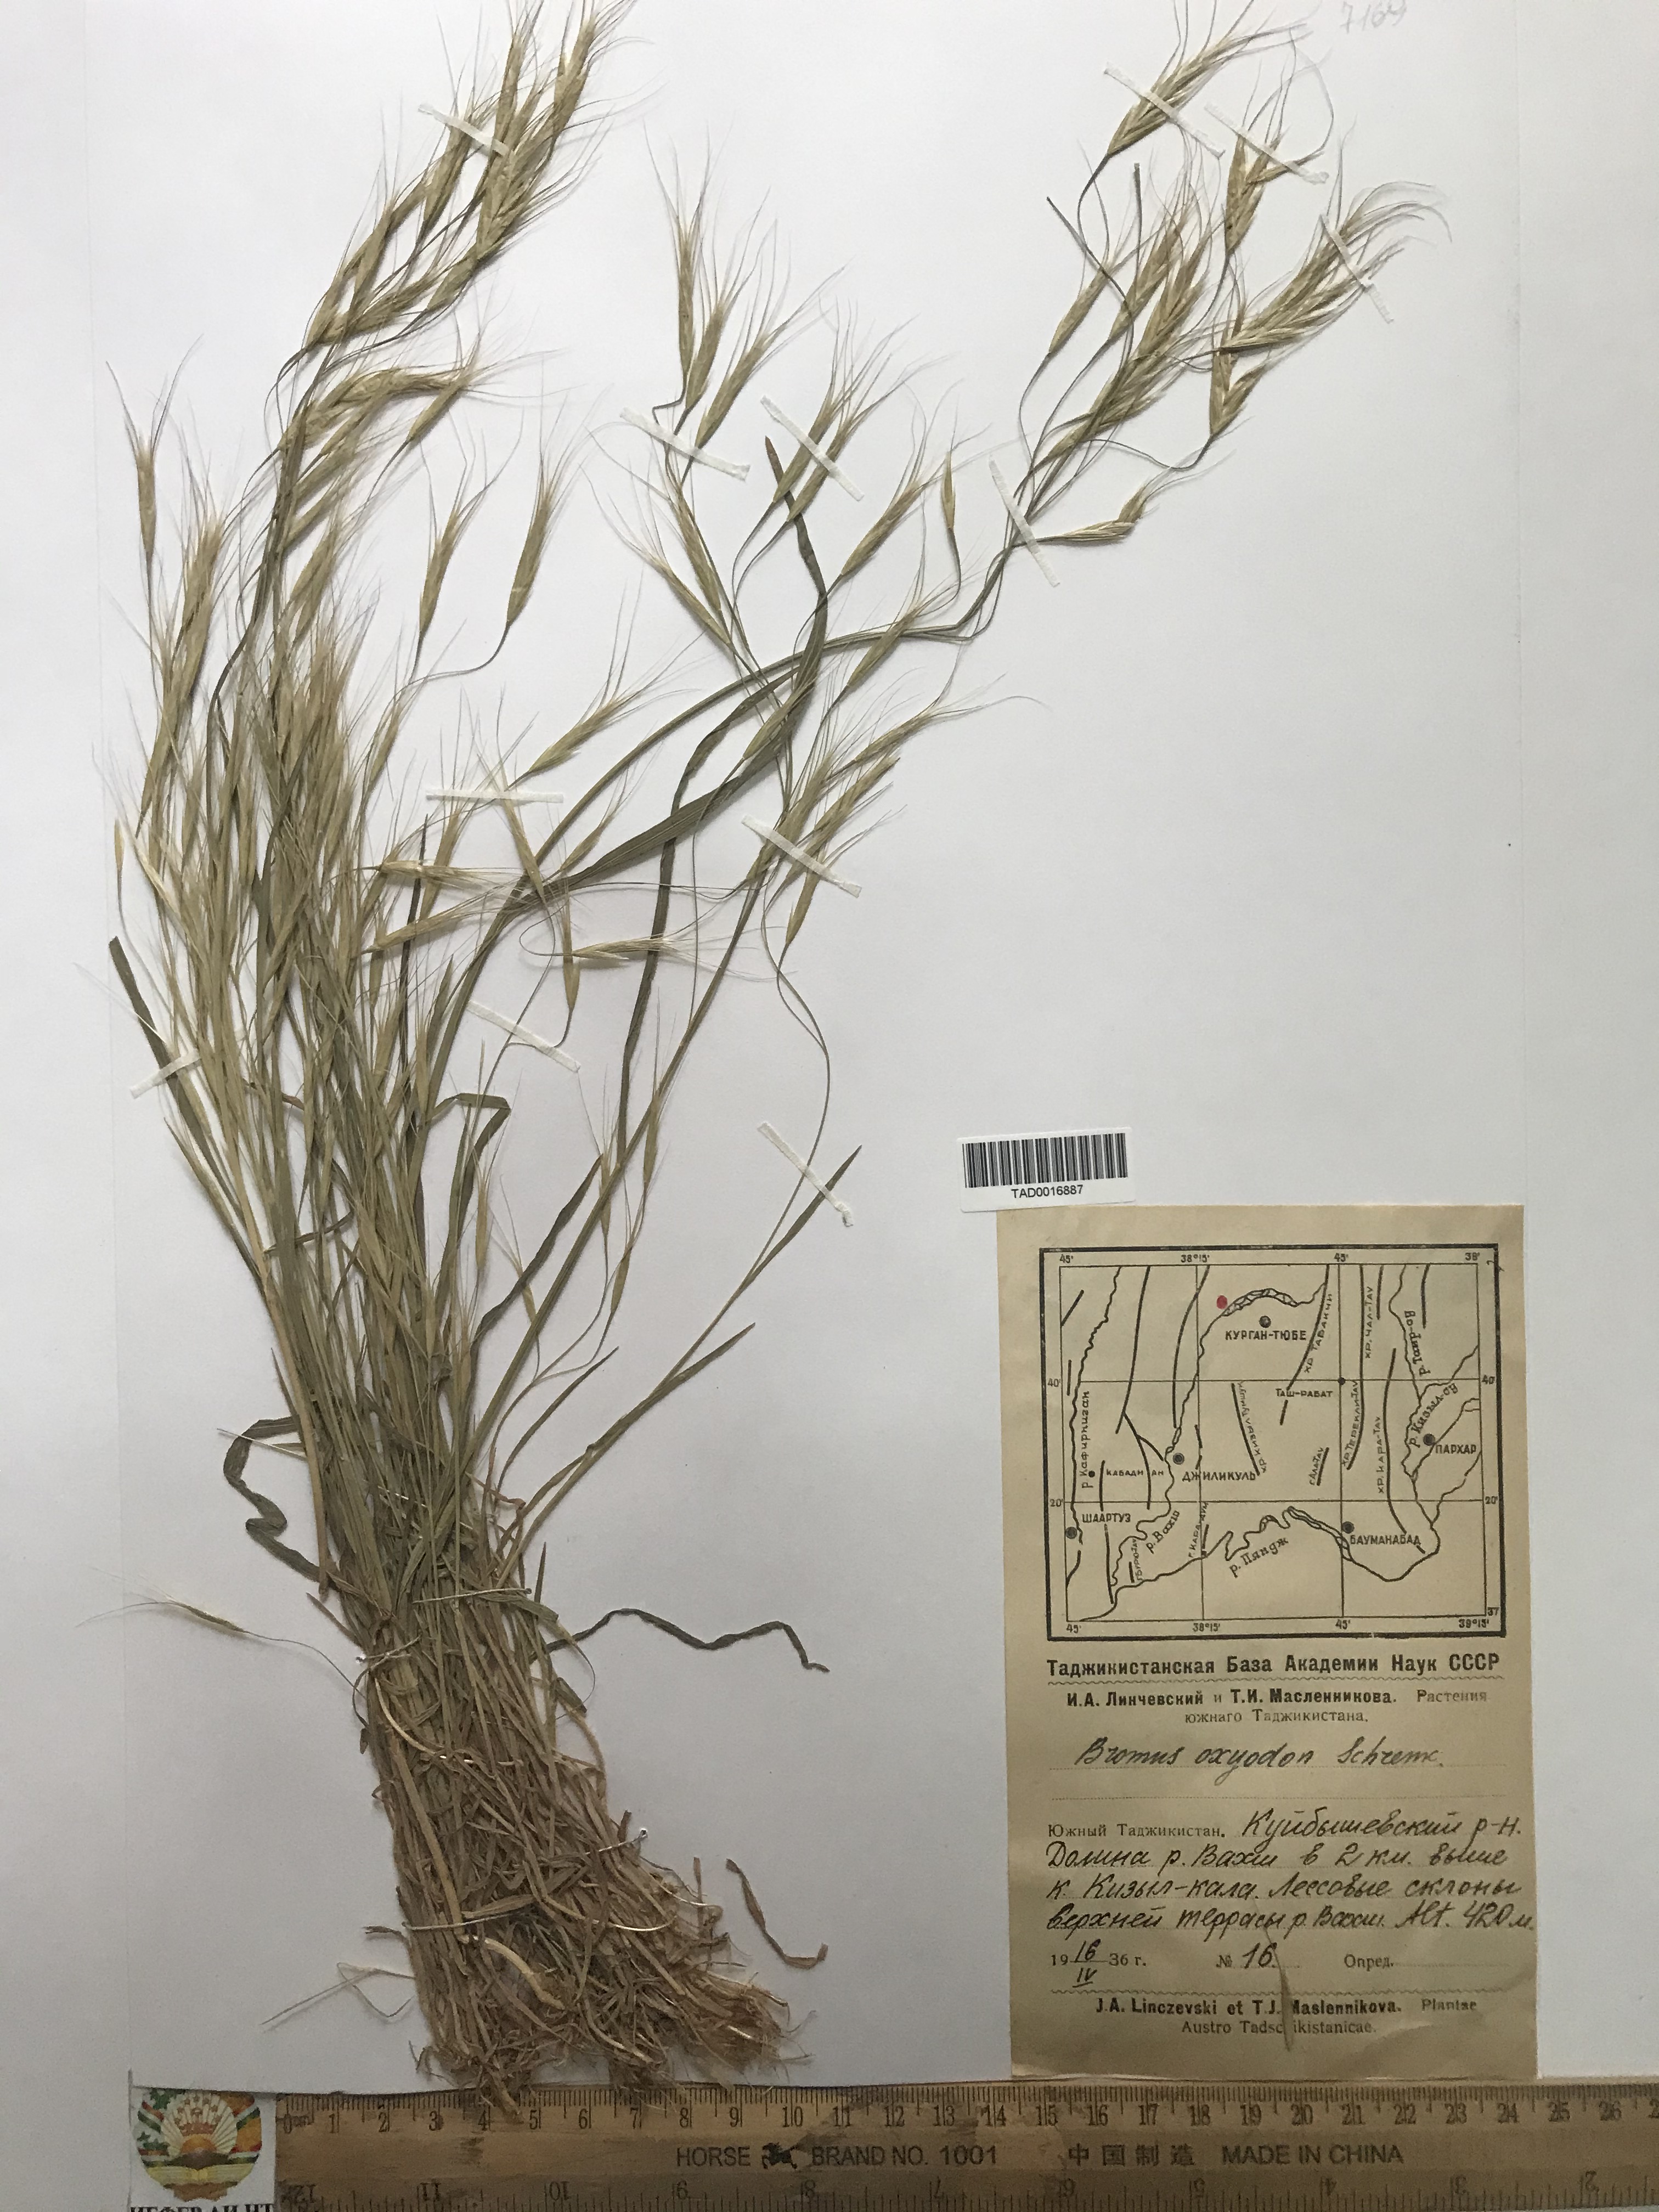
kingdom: Plantae
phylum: Tracheophyta
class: Liliopsida
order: Poales
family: Poaceae
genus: Bromus
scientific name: Bromus oxyodon
